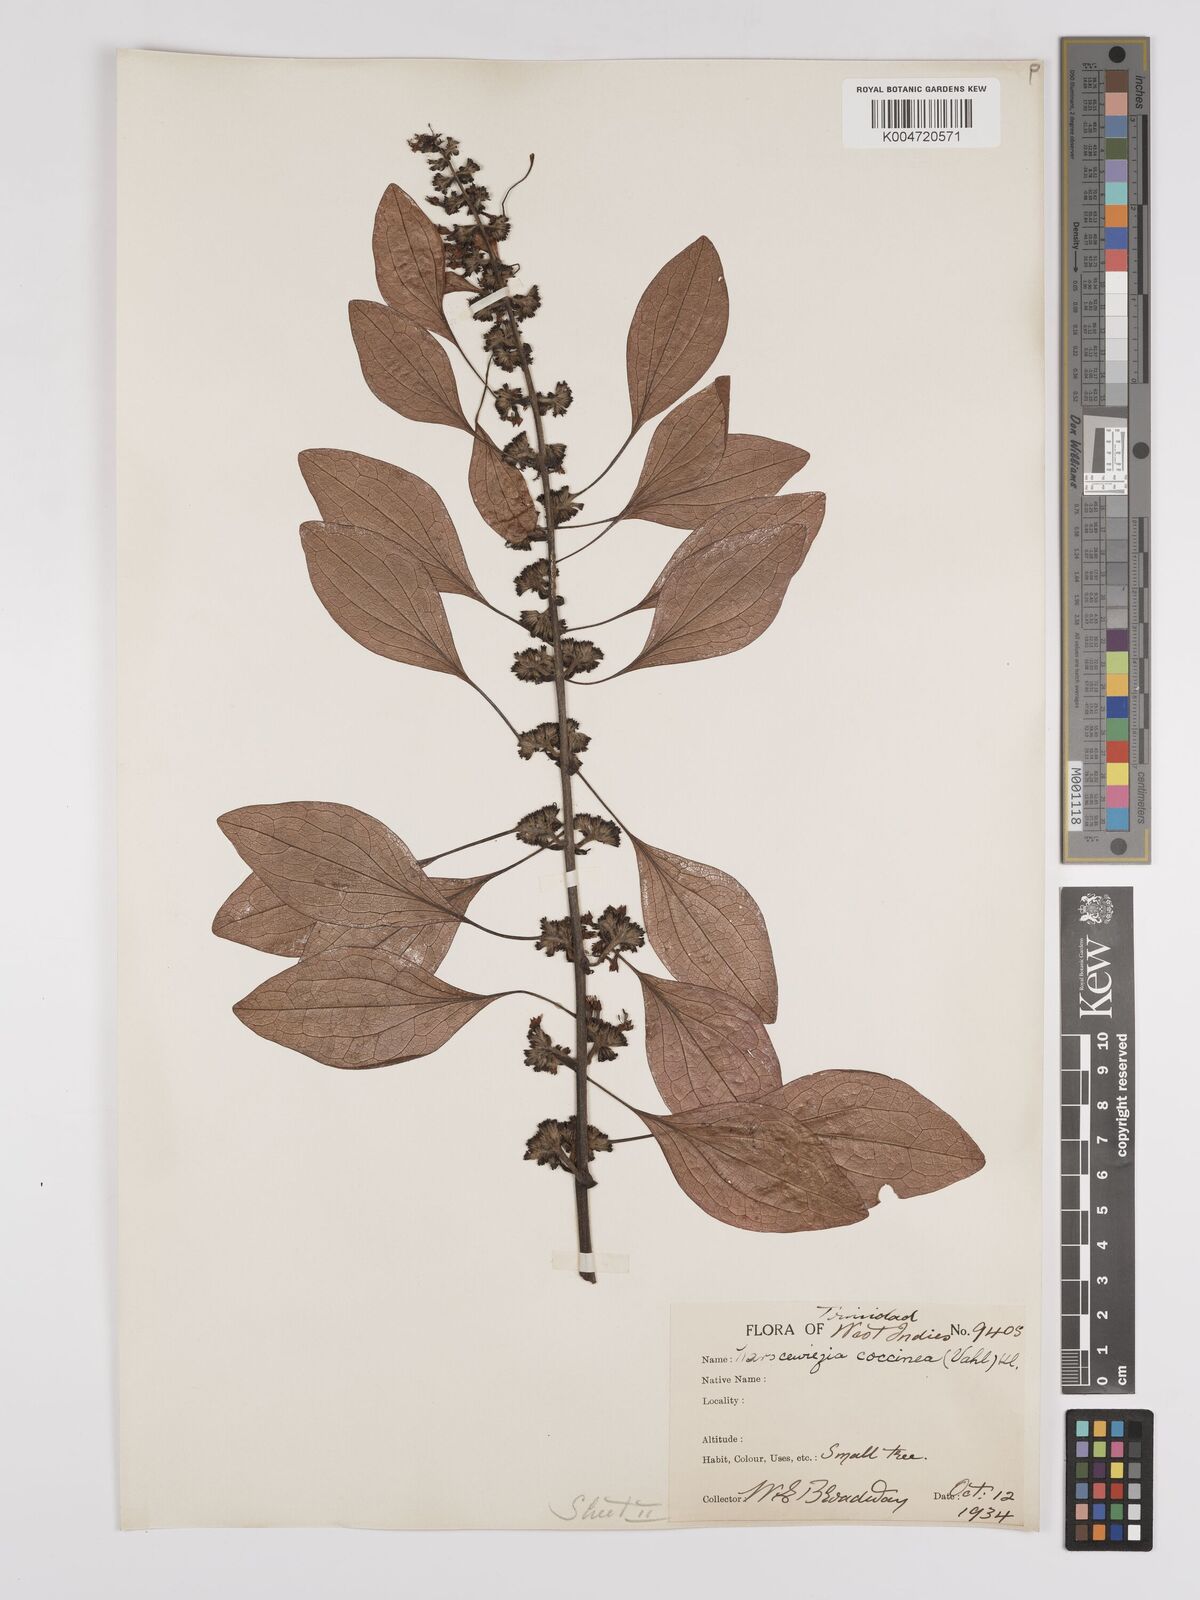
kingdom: Plantae
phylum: Tracheophyta
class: Magnoliopsida
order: Gentianales
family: Rubiaceae
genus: Warszewiczia
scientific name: Warszewiczia coccinea
